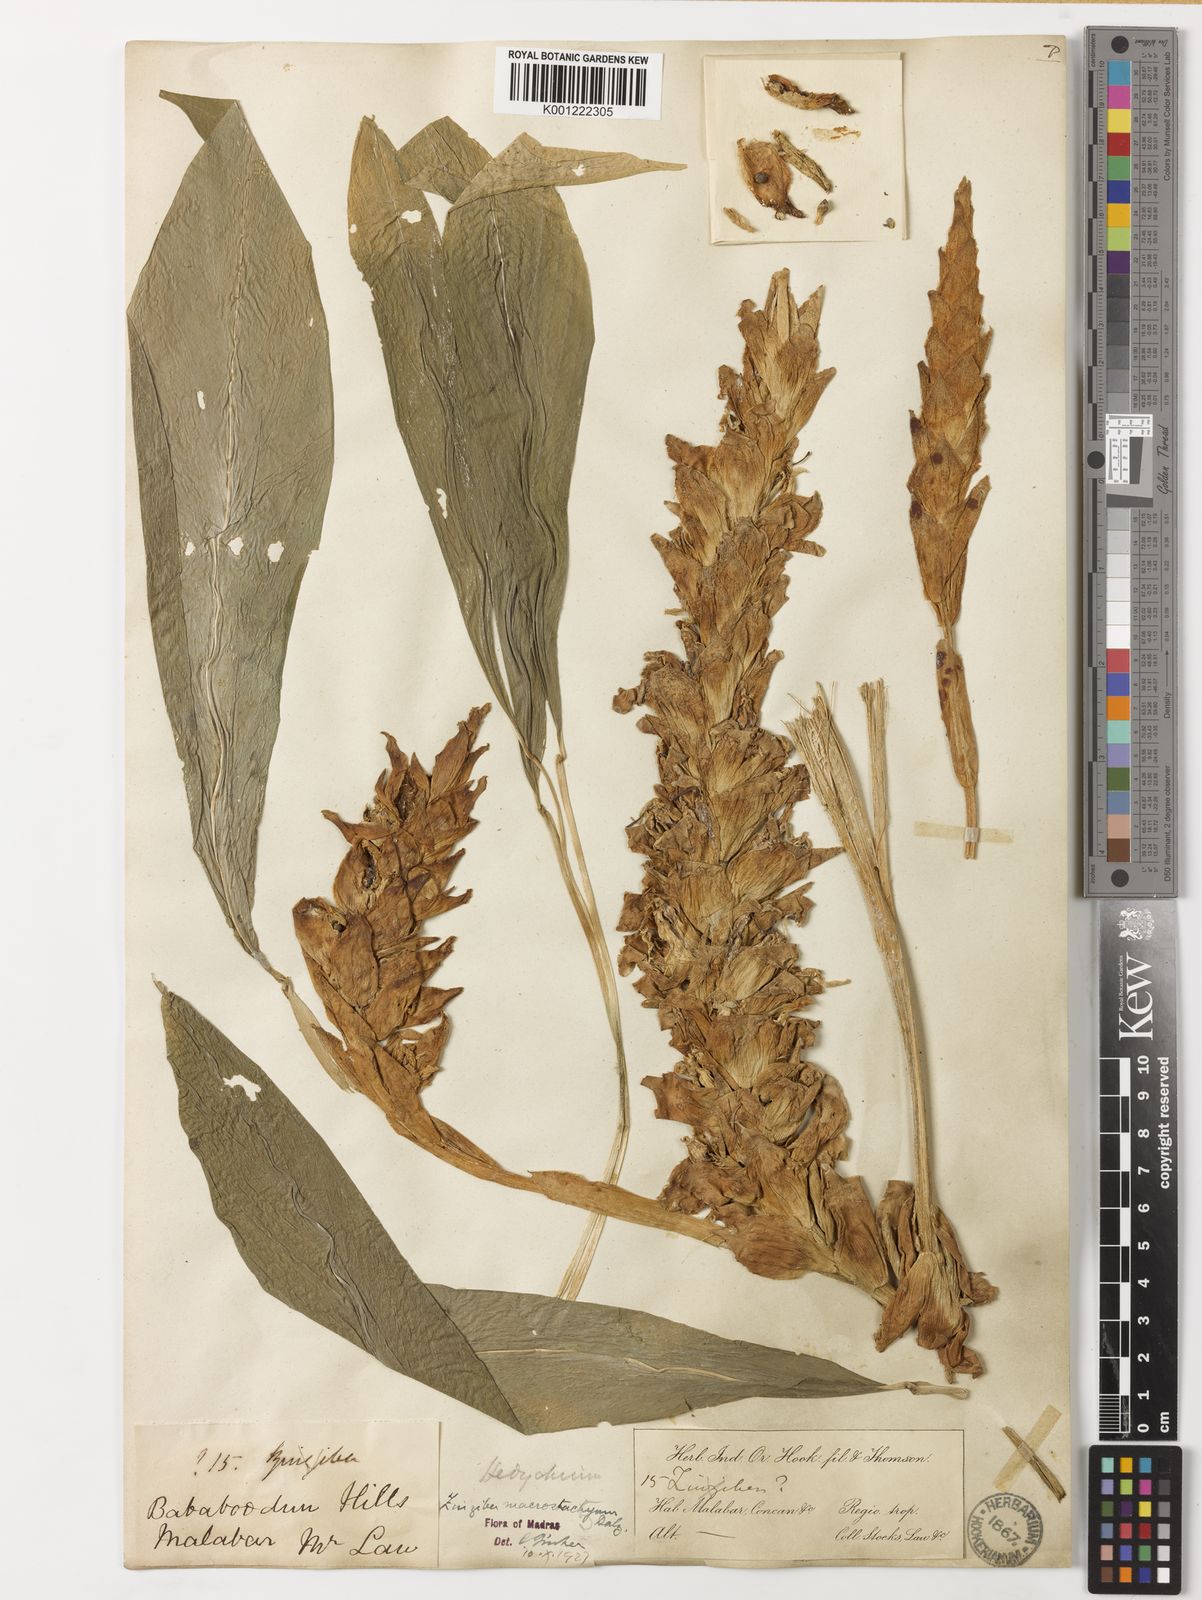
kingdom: Plantae
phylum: Tracheophyta
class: Liliopsida
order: Zingiberales
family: Zingiberaceae
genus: Zingiber
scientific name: Zingiber neesanum
